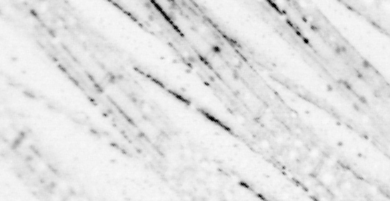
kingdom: Animalia
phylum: Chordata
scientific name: Chordata
